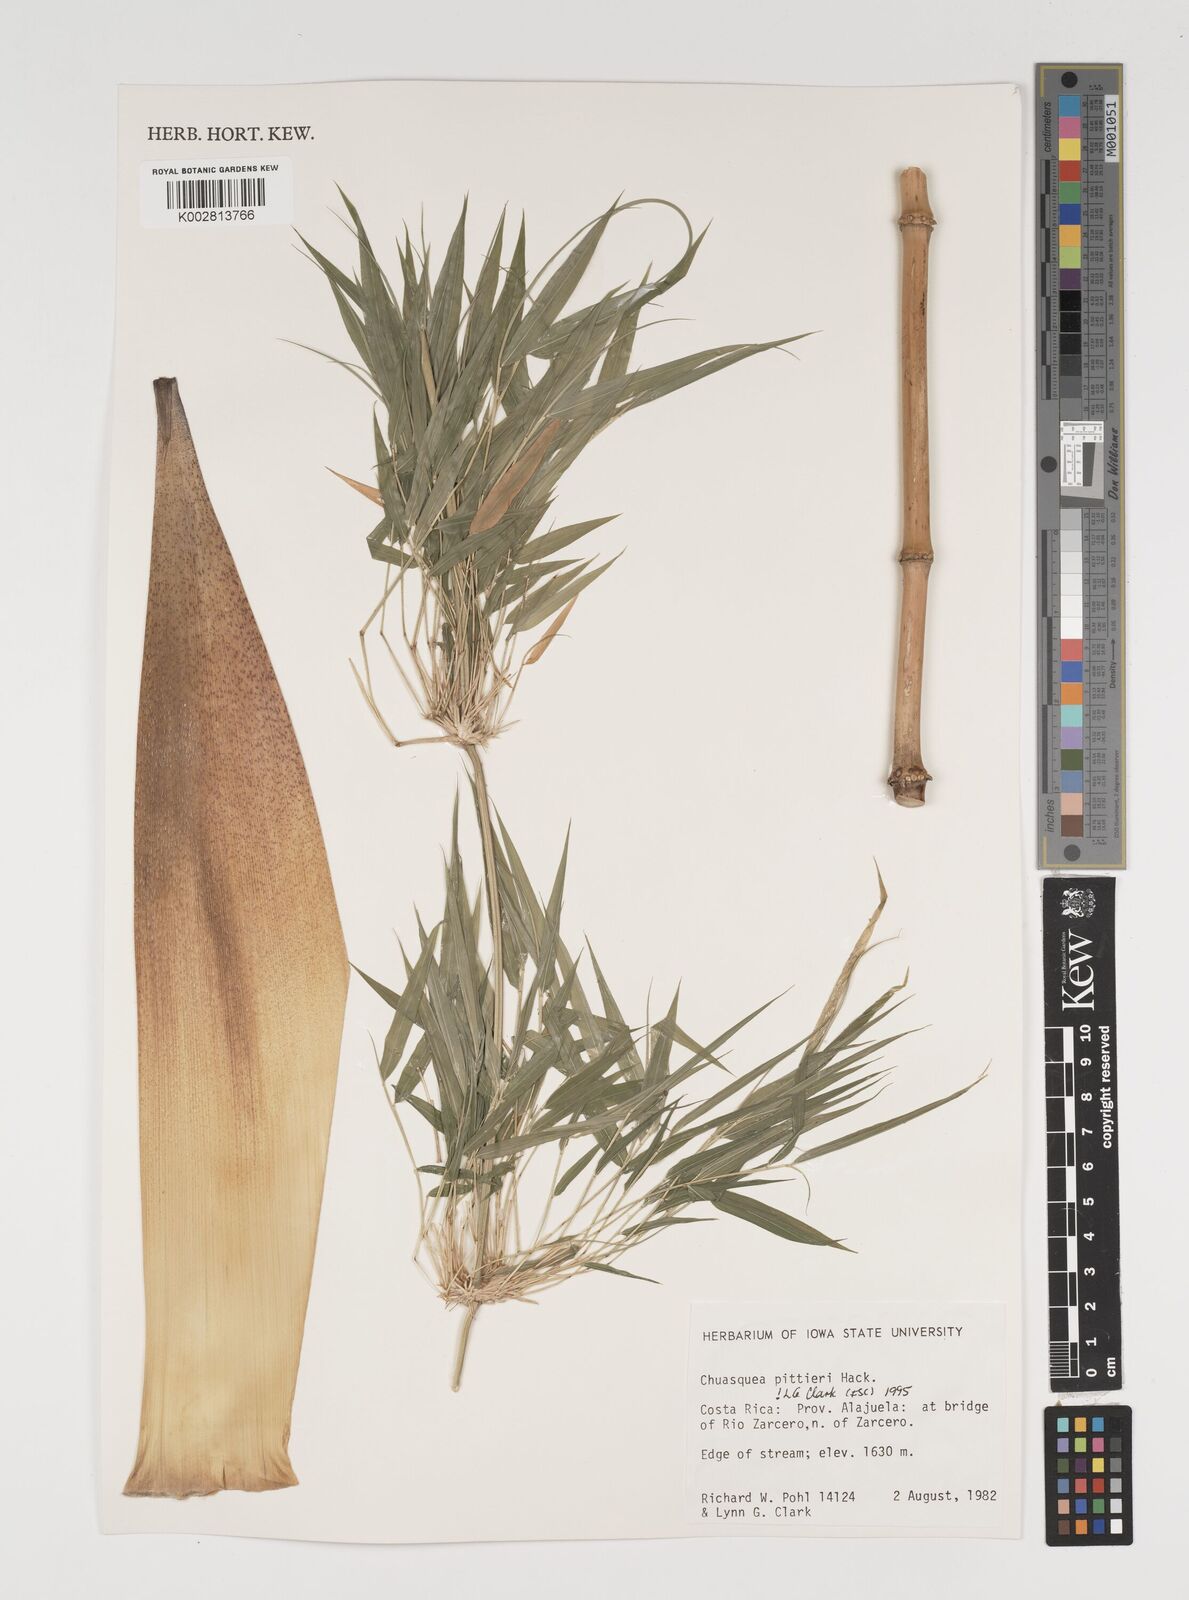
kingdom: Plantae
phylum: Tracheophyta
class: Liliopsida
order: Poales
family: Poaceae
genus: Chusquea
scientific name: Chusquea pittieri
